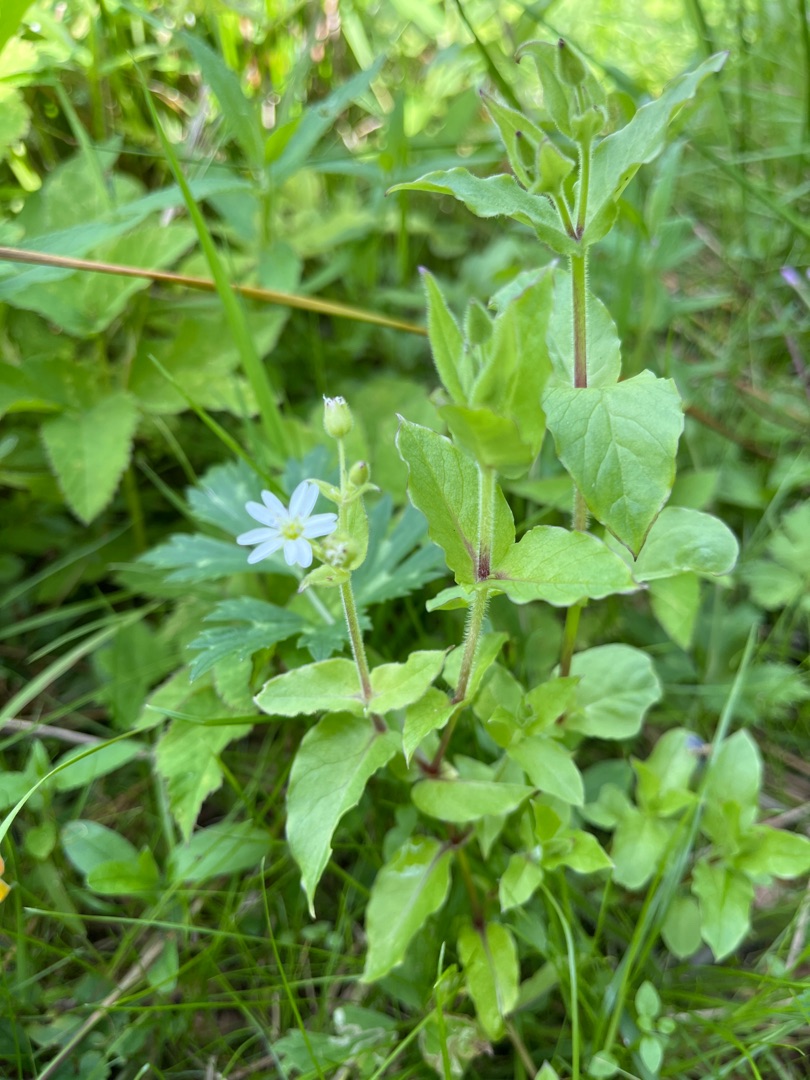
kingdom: Plantae
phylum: Tracheophyta
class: Magnoliopsida
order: Caryophyllales
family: Caryophyllaceae
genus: Stellaria
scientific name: Stellaria aquatica
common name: Kløvkrone
